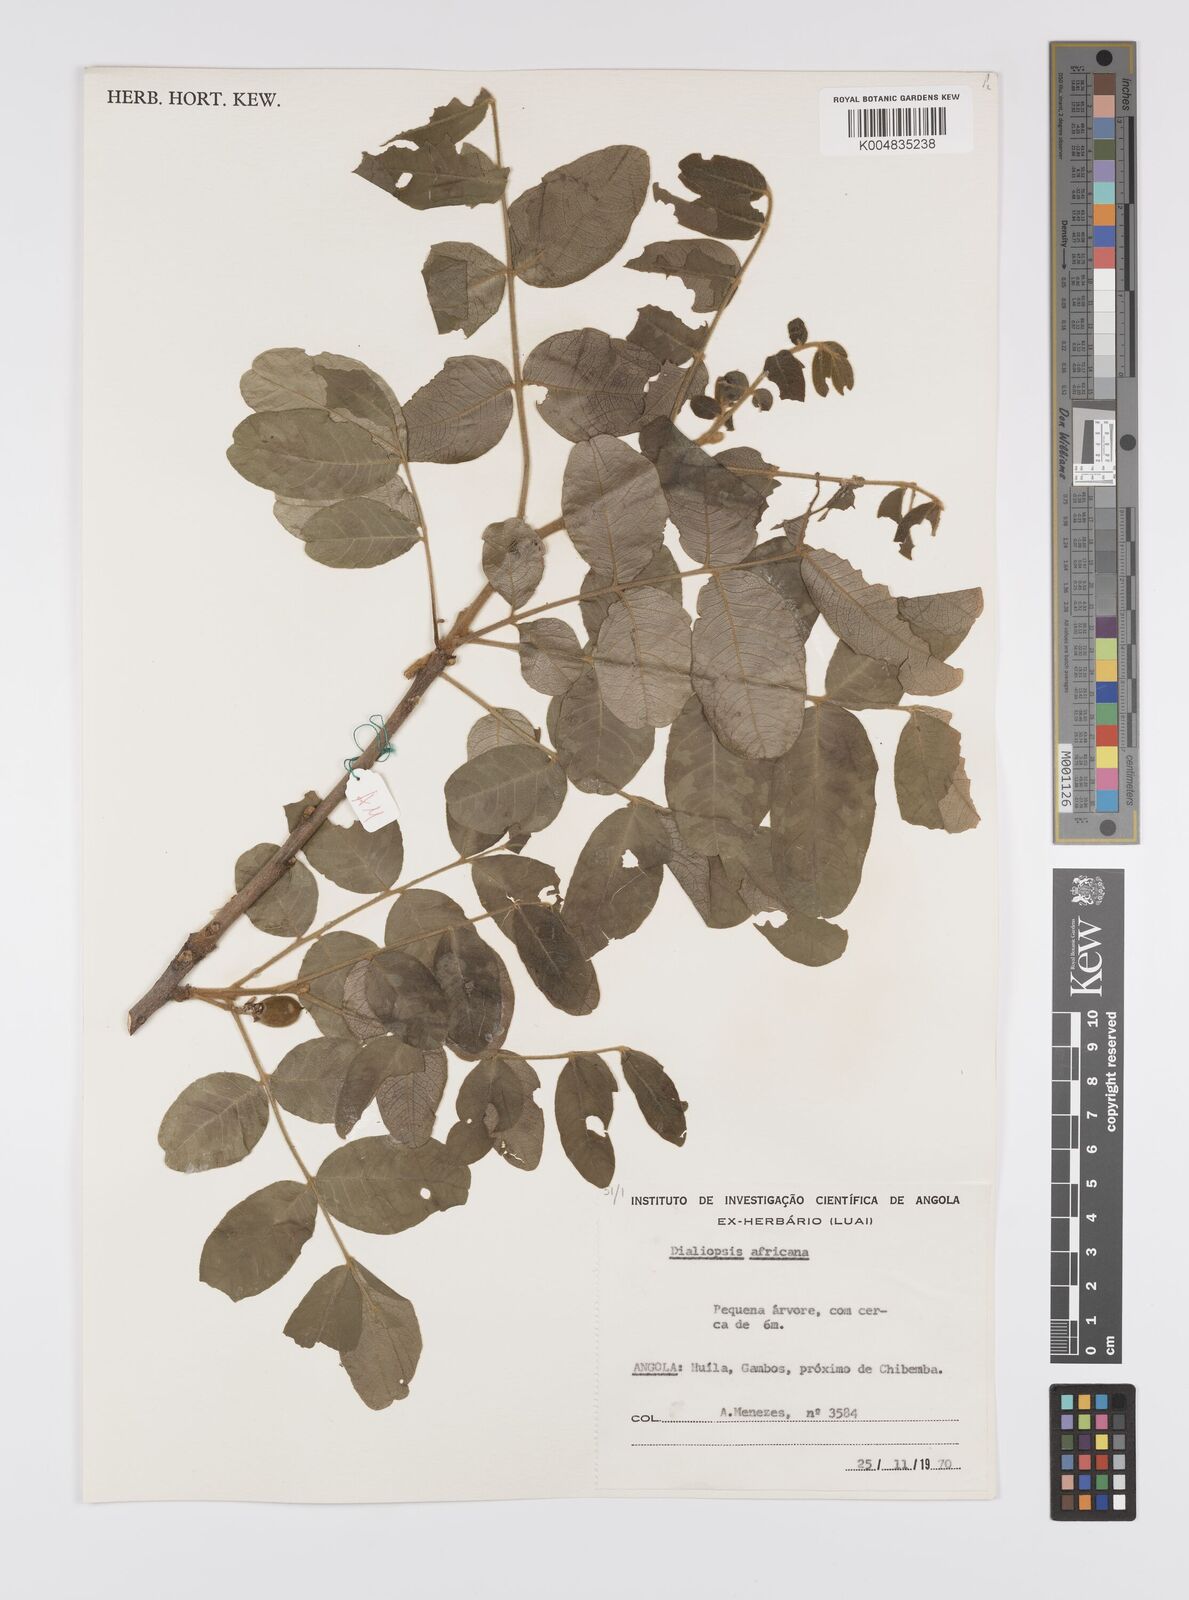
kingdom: Plantae
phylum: Tracheophyta
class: Magnoliopsida
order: Sapindales
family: Sapindaceae
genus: Zanha
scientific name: Zanha africana
